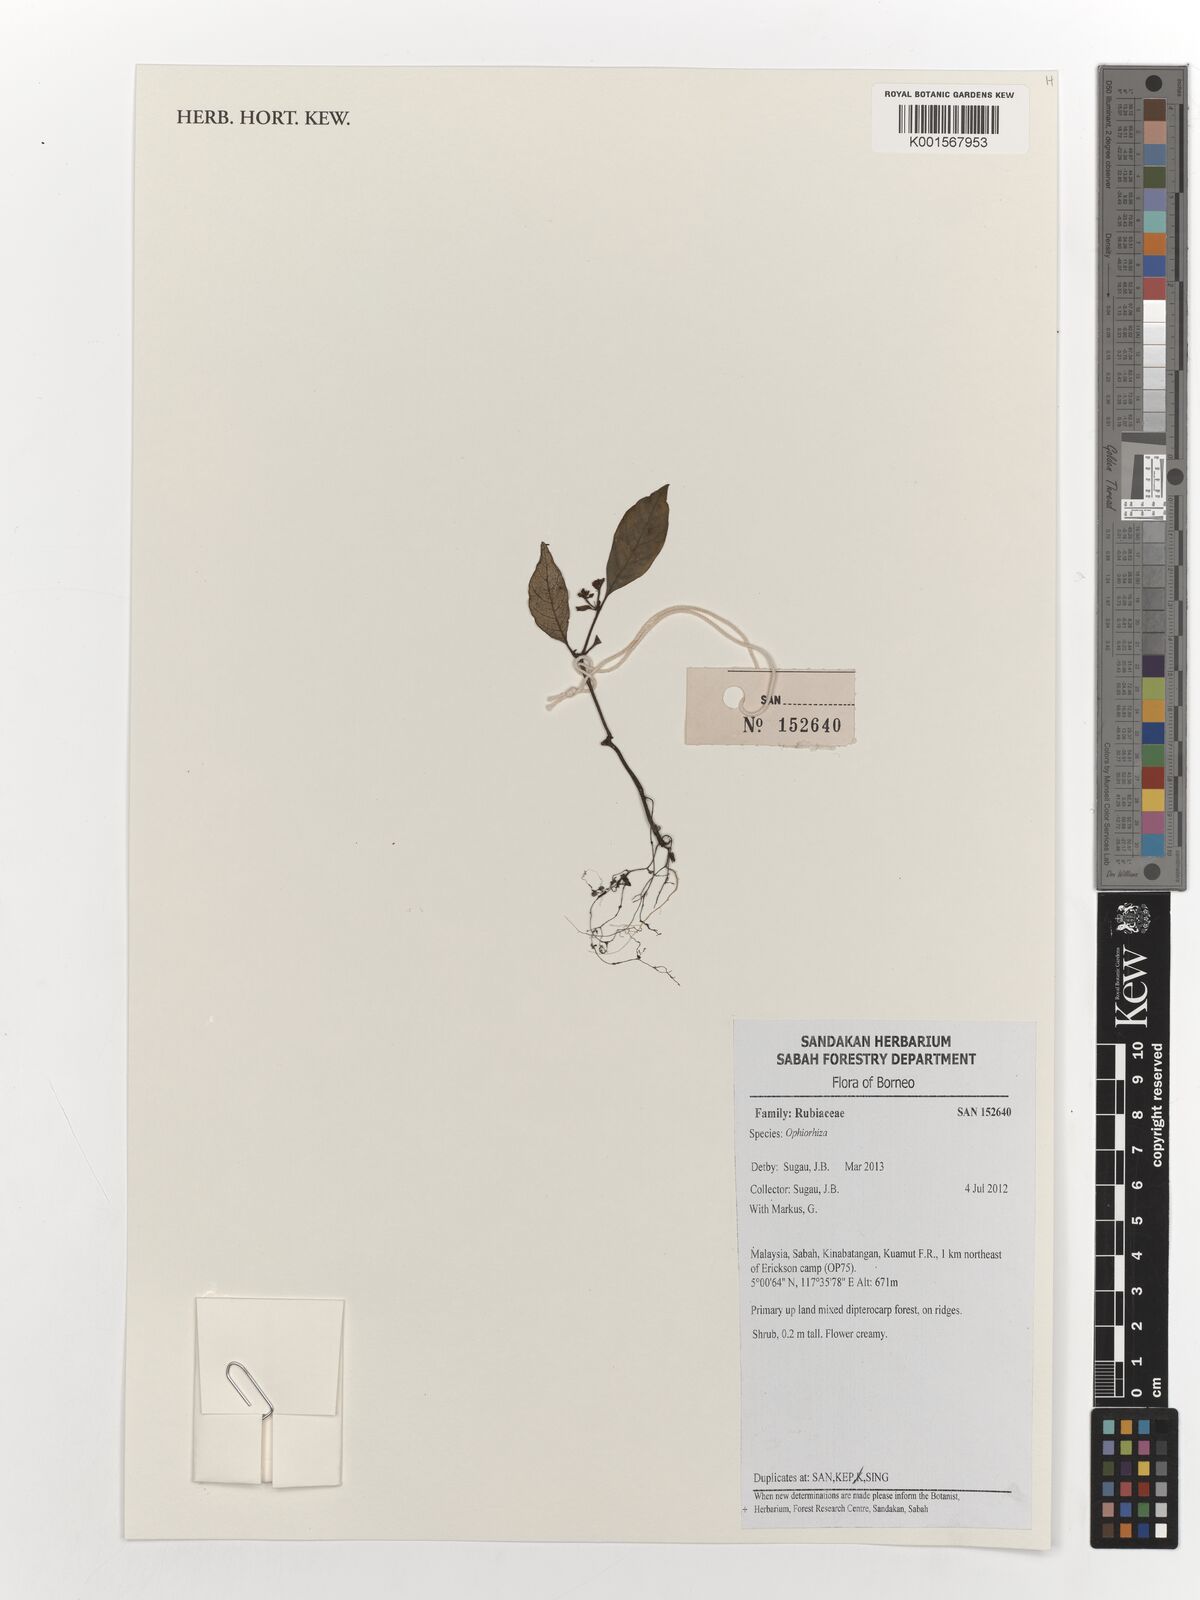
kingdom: Plantae
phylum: Tracheophyta
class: Magnoliopsida
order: Gentianales
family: Rubiaceae
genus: Ophiorrhiza
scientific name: Ophiorrhiza
